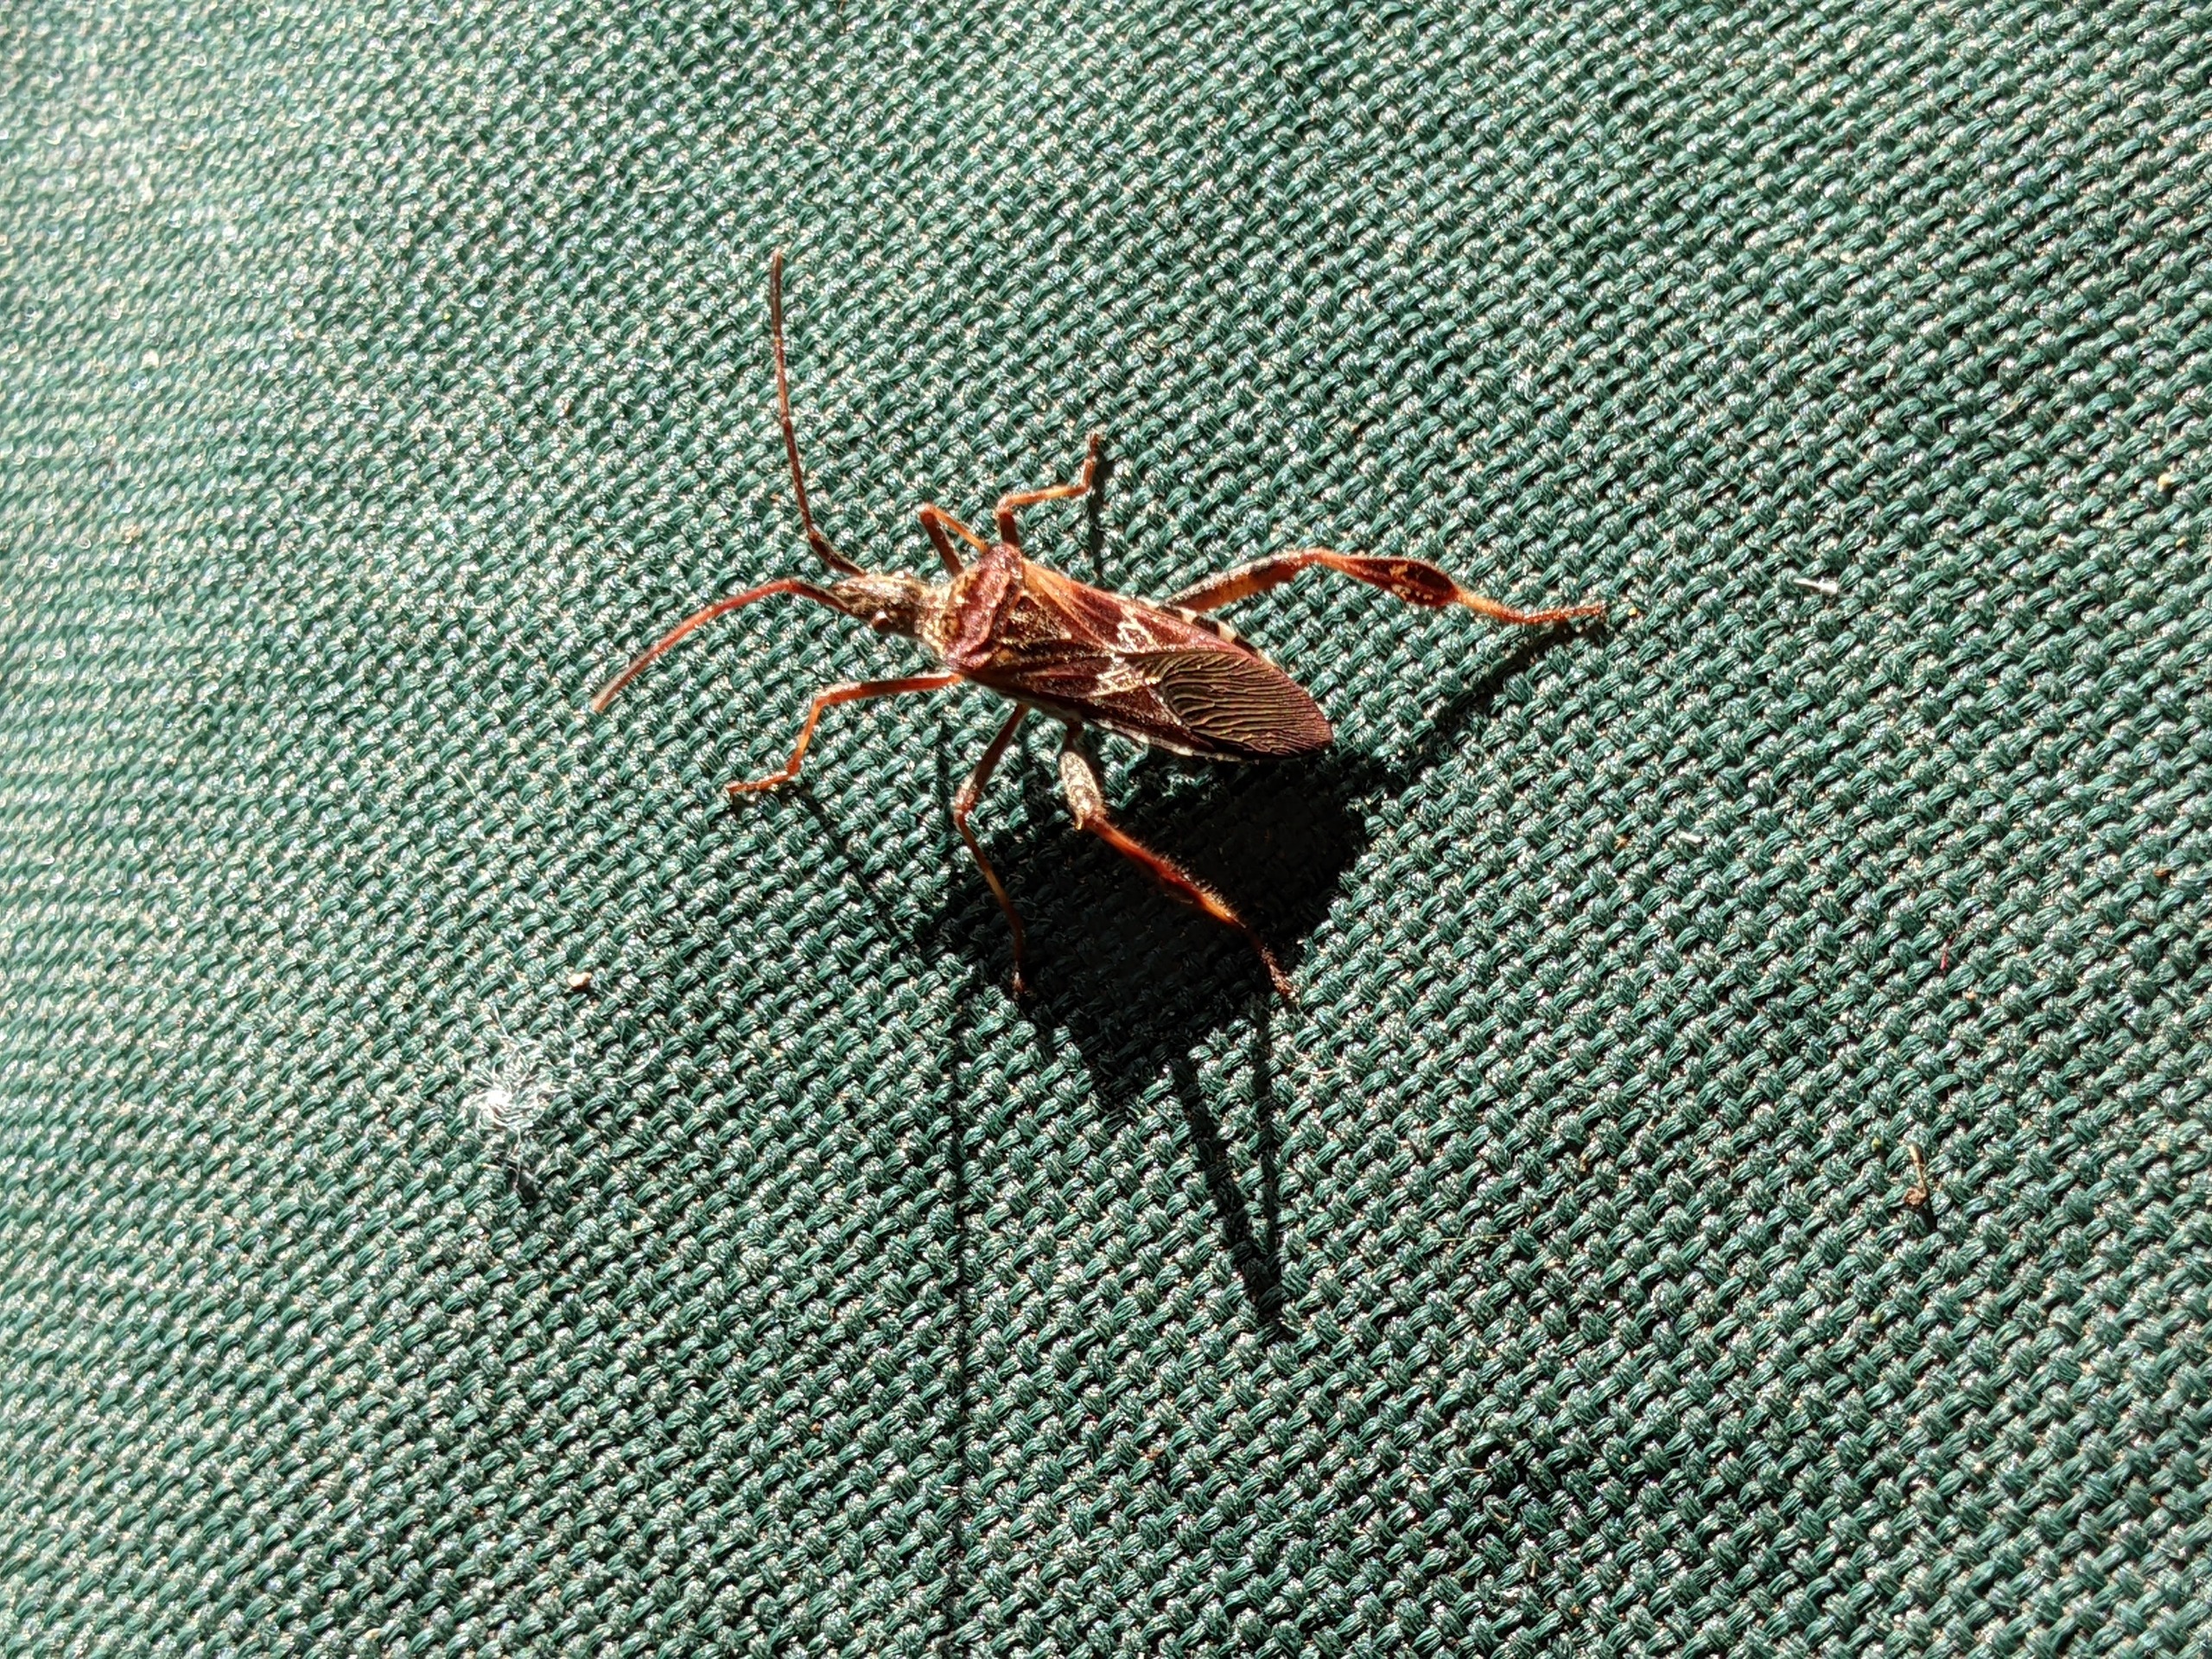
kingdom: Animalia
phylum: Arthropoda
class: Insecta
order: Hemiptera
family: Coreidae
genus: Leptoglossus
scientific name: Leptoglossus occidentalis
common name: Amerikansk fyrretæge
